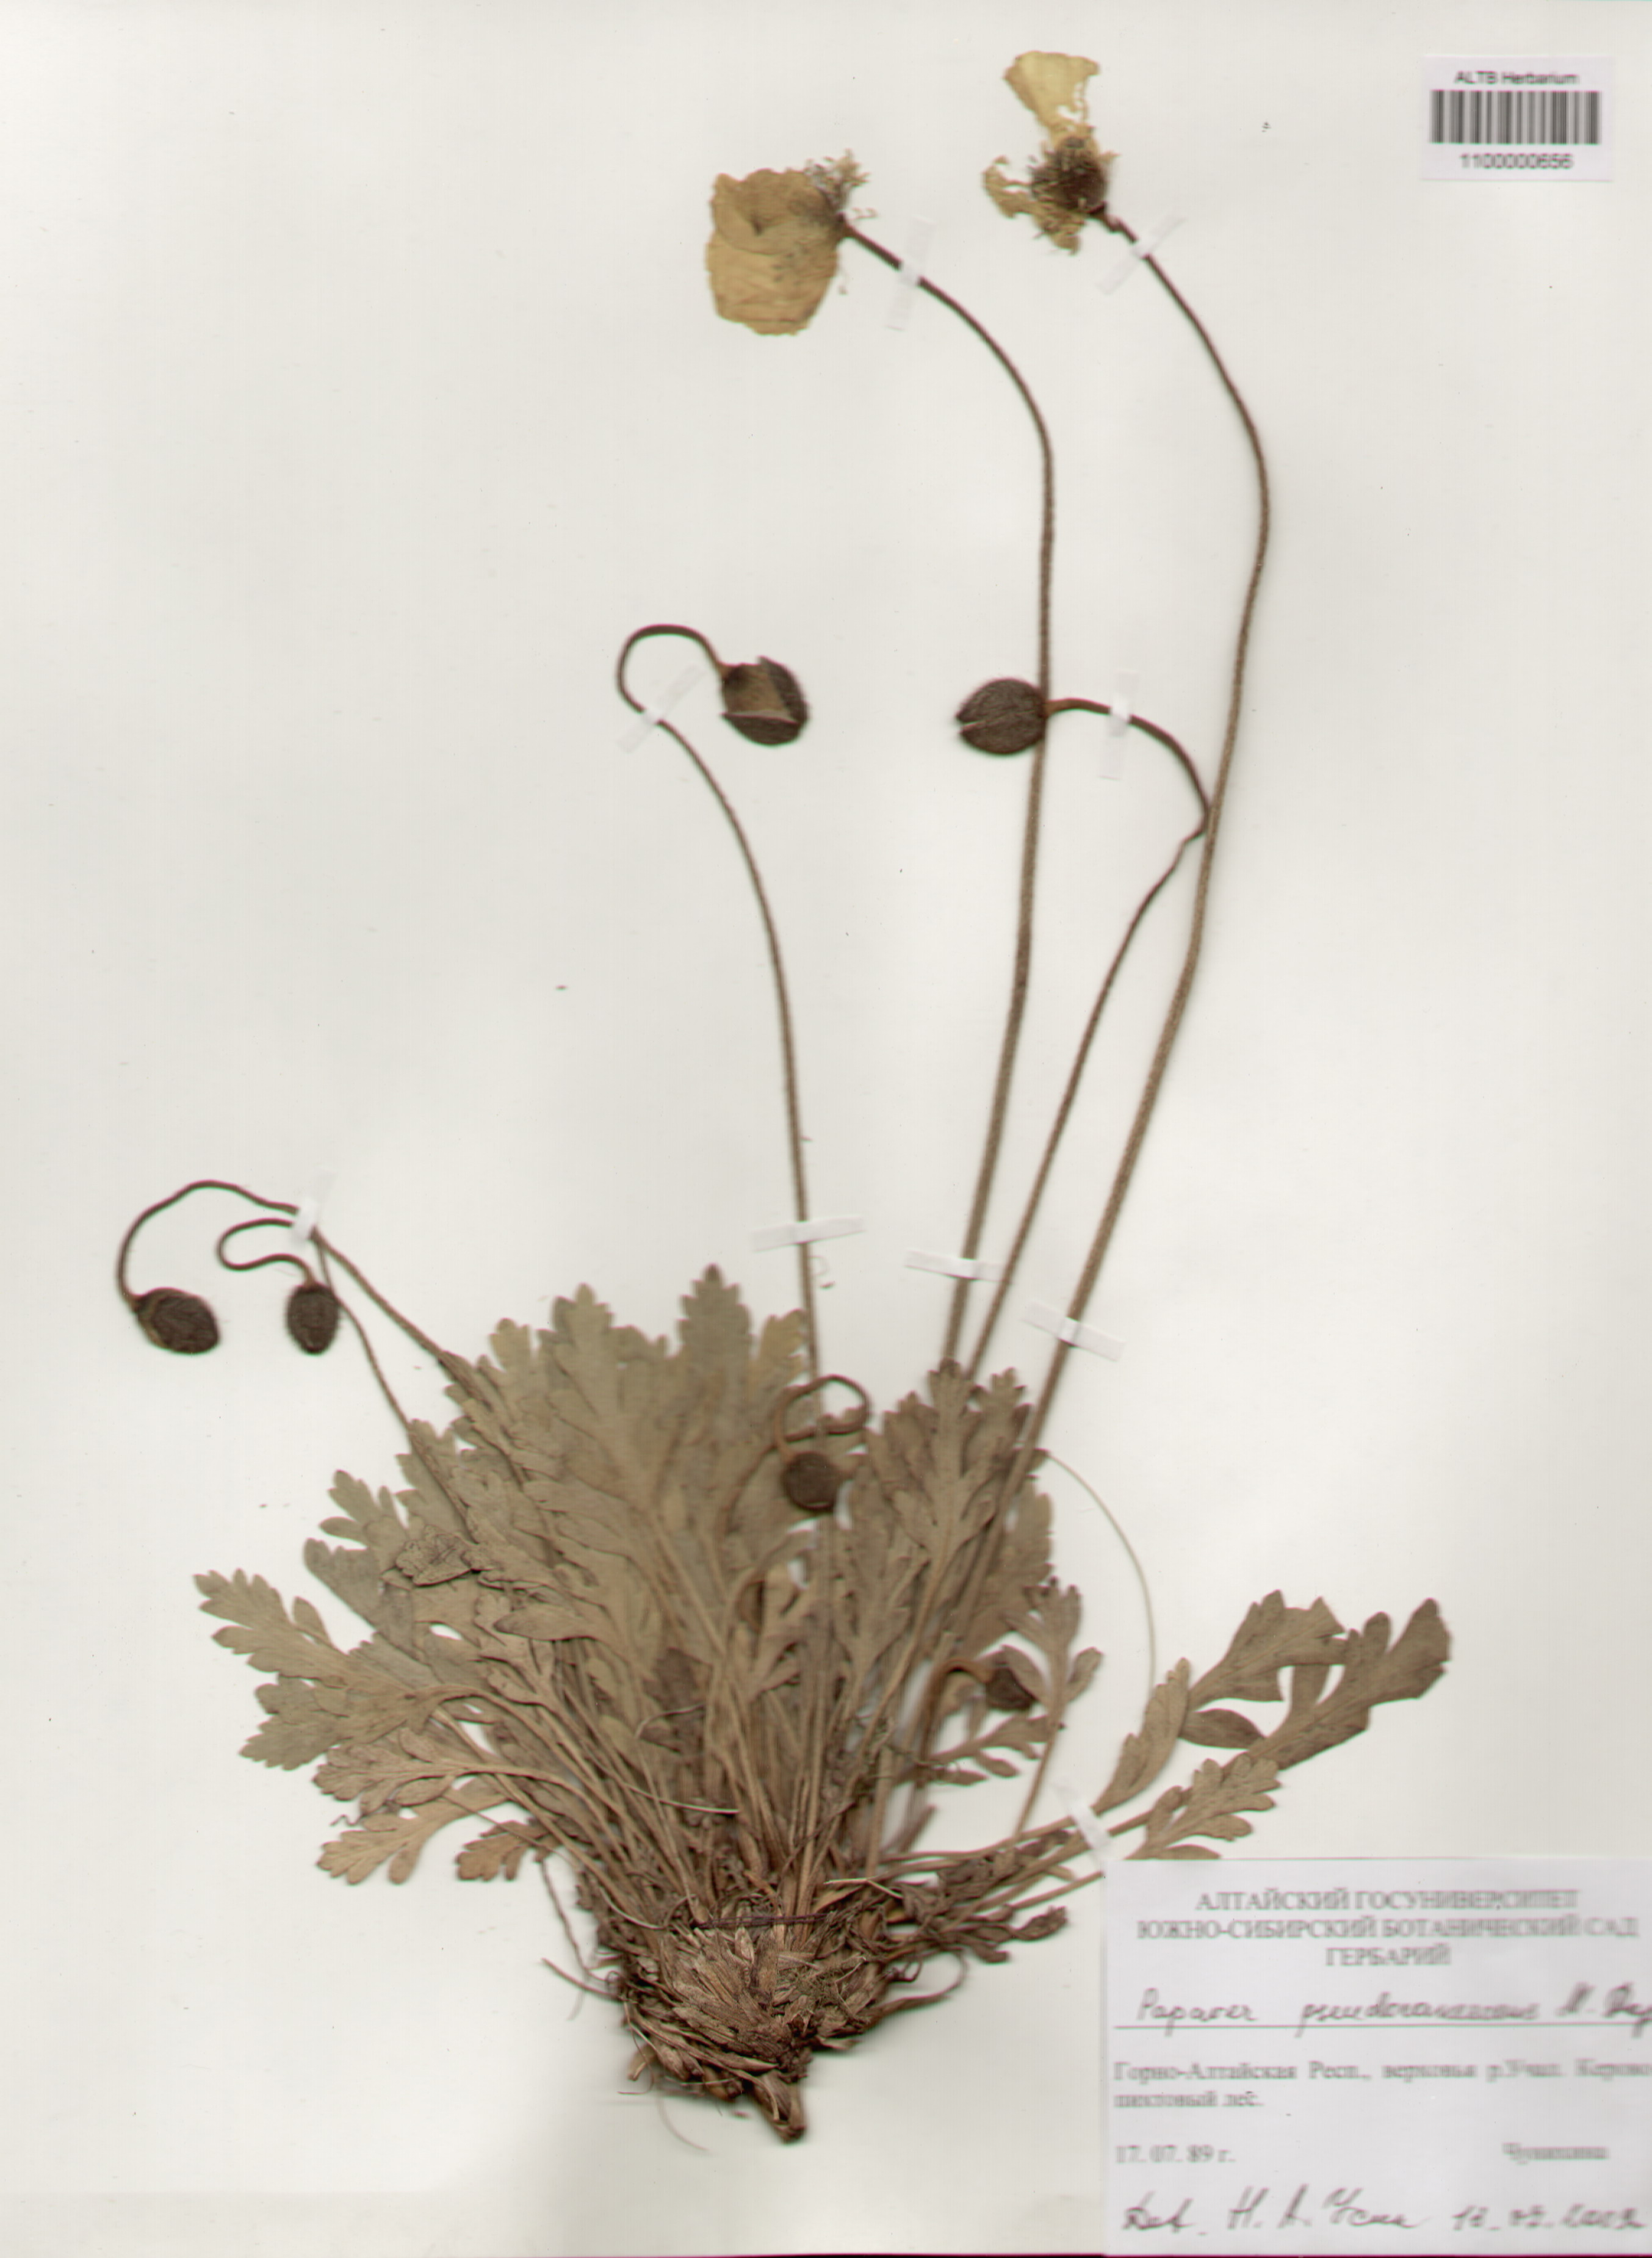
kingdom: Plantae
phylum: Tracheophyta
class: Magnoliopsida
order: Ranunculales
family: Papaveraceae
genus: Papaver
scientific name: Papaver canescens
